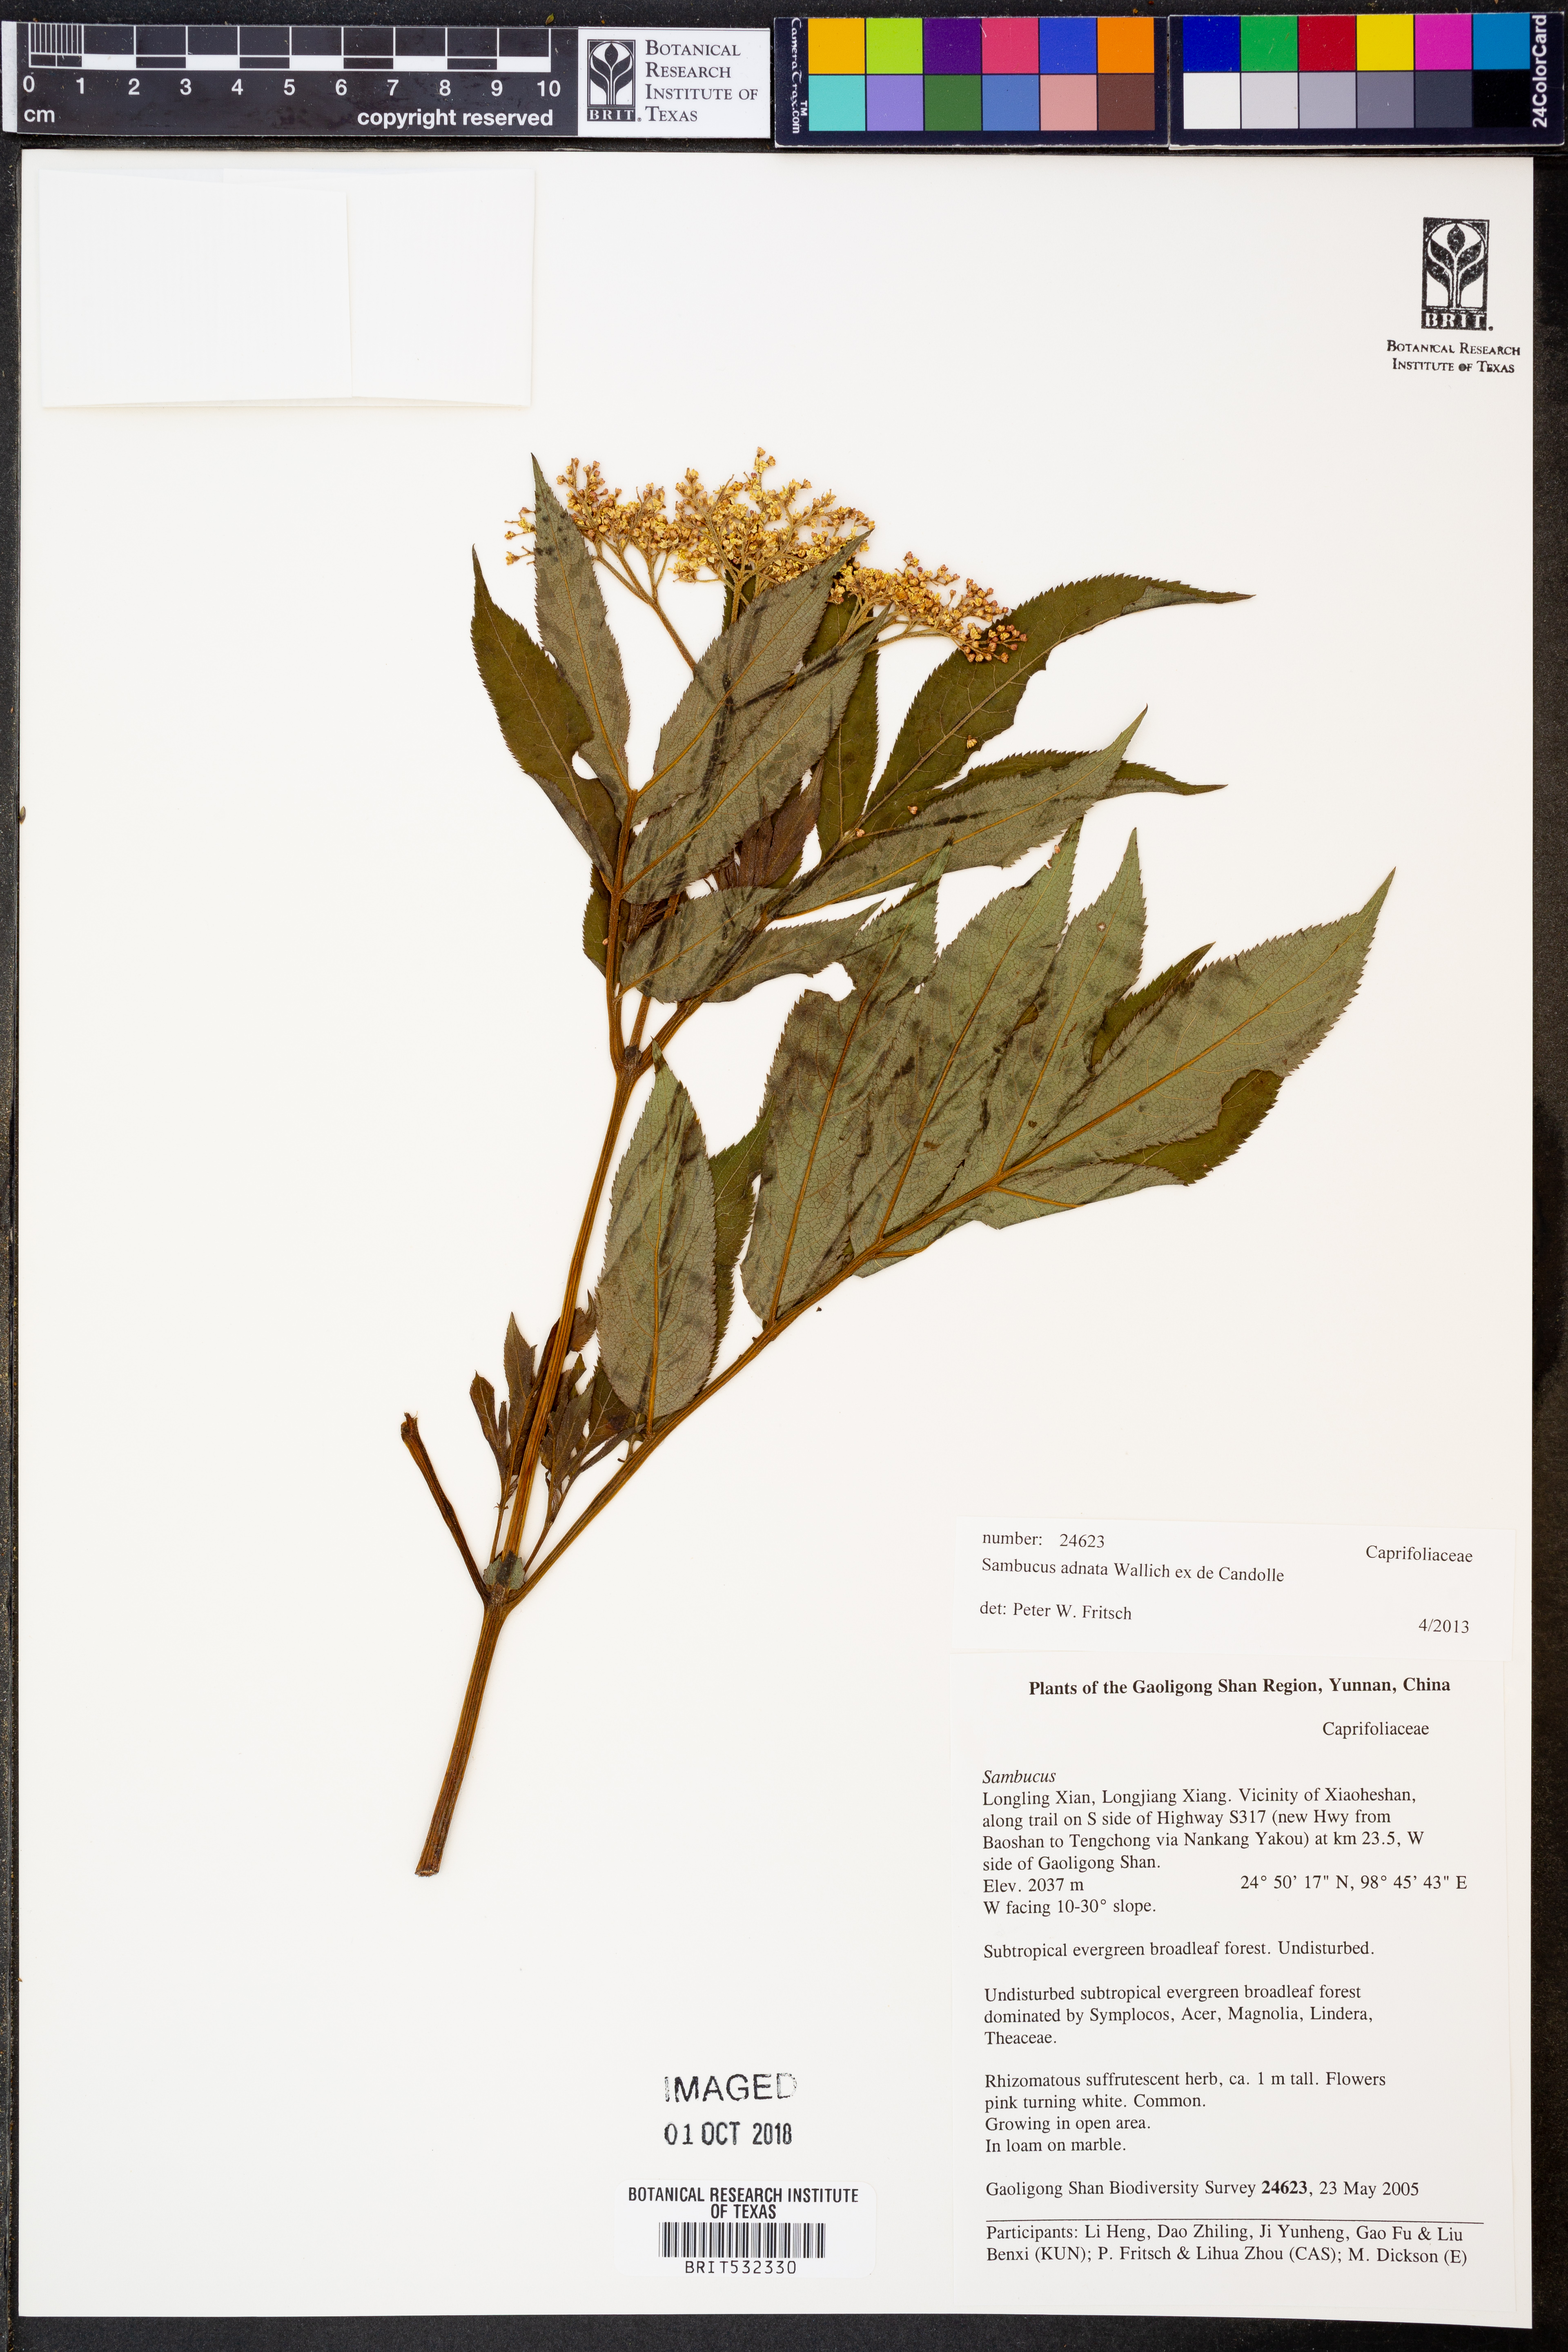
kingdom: Plantae
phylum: Tracheophyta
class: Magnoliopsida
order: Dipsacales
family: Viburnaceae
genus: Sambucus
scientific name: Sambucus adnata
